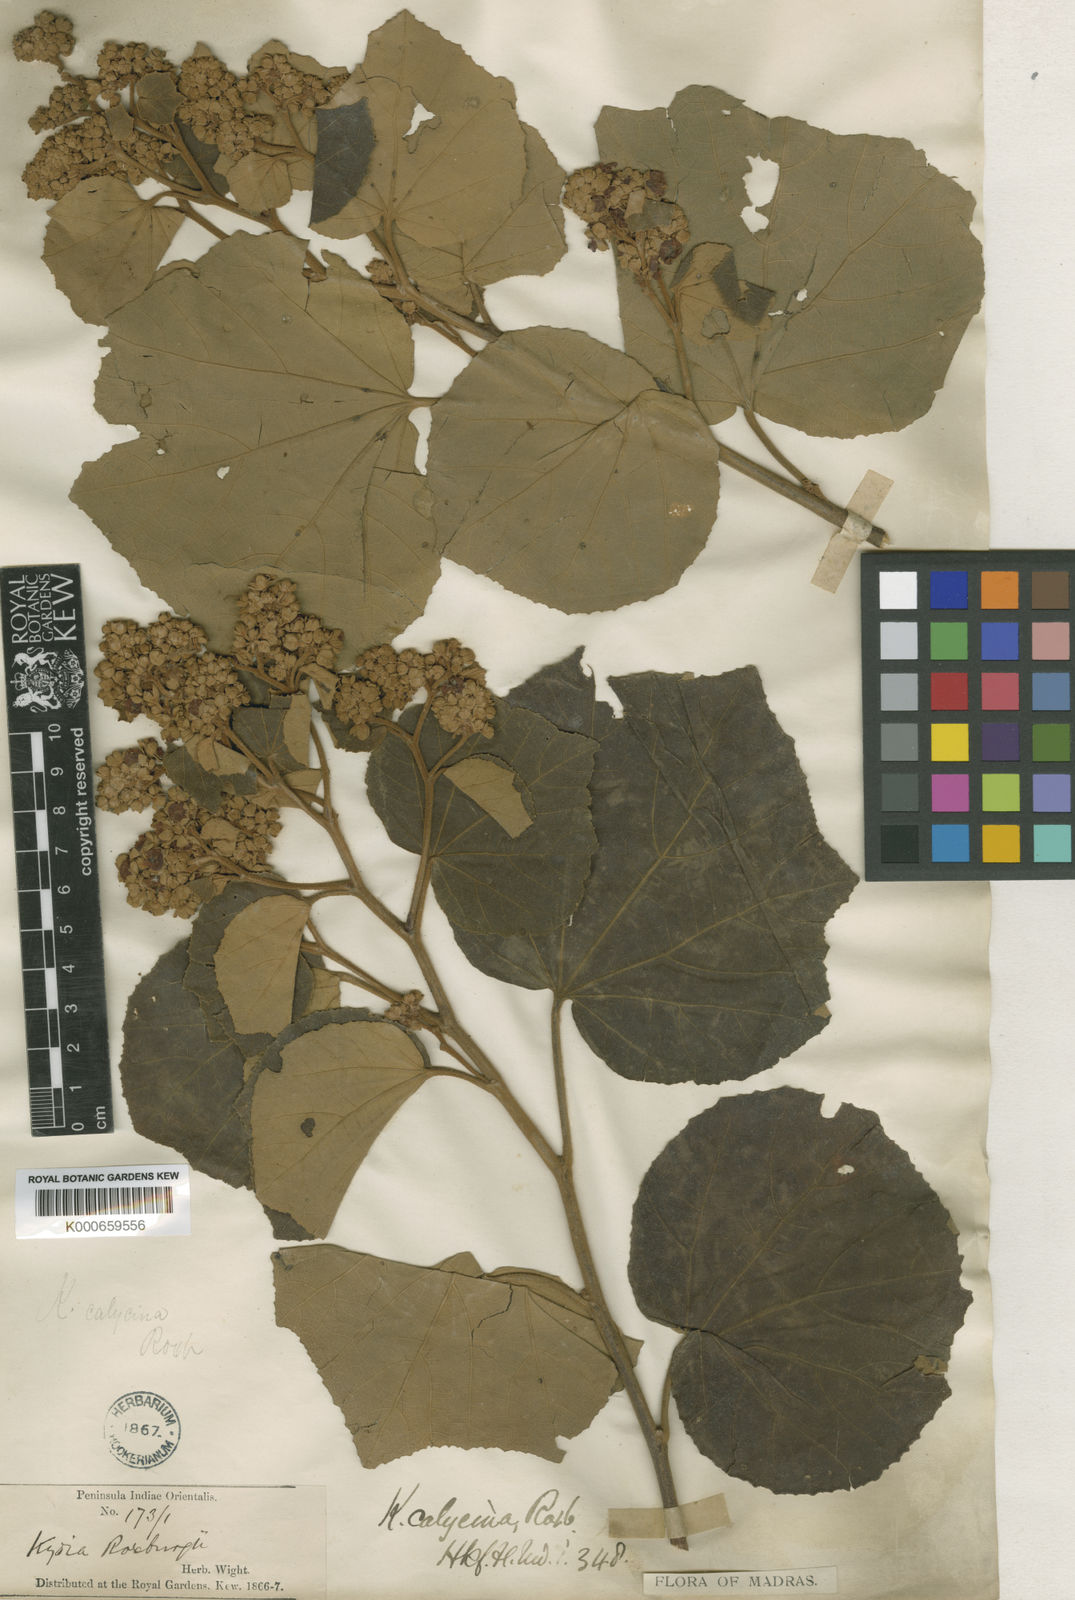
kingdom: Plantae
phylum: Tracheophyta
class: Magnoliopsida
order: Malvales
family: Malvaceae
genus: Kydia
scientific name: Kydia calycina
